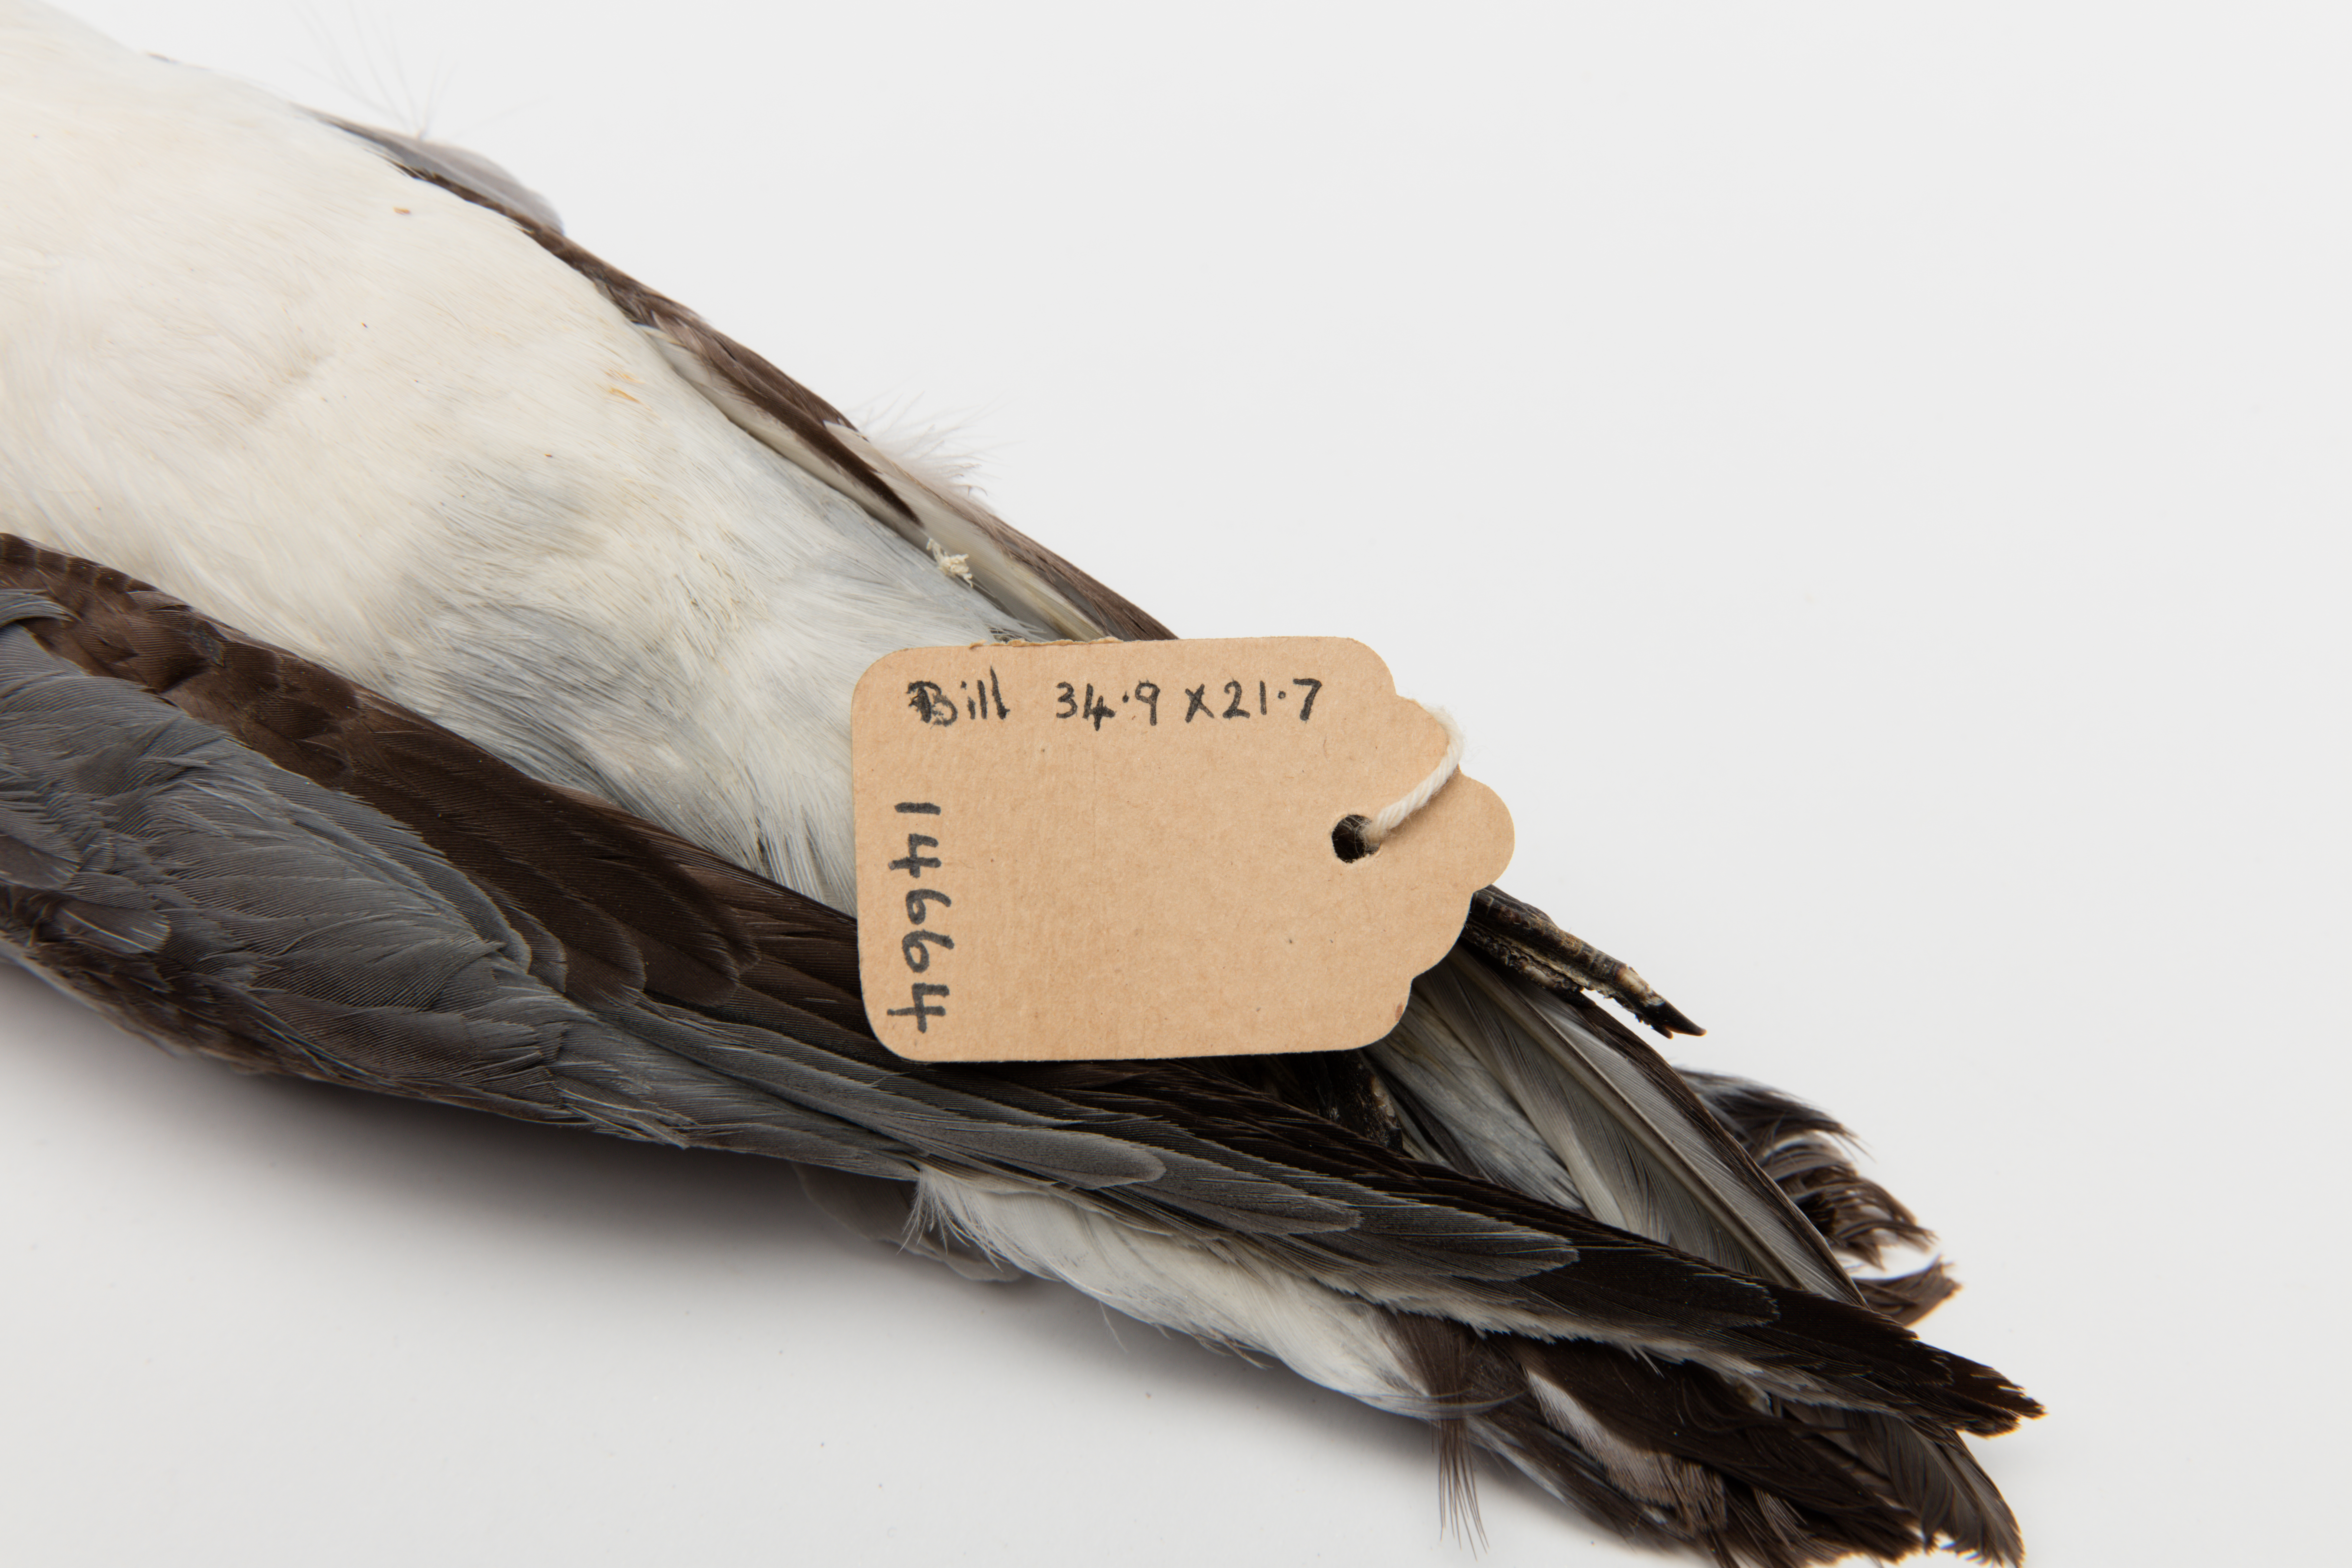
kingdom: Animalia
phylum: Chordata
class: Aves
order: Procellariiformes
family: Procellariidae
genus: Pachyptila
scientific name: Pachyptila vittata
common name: Broad-billed prion
